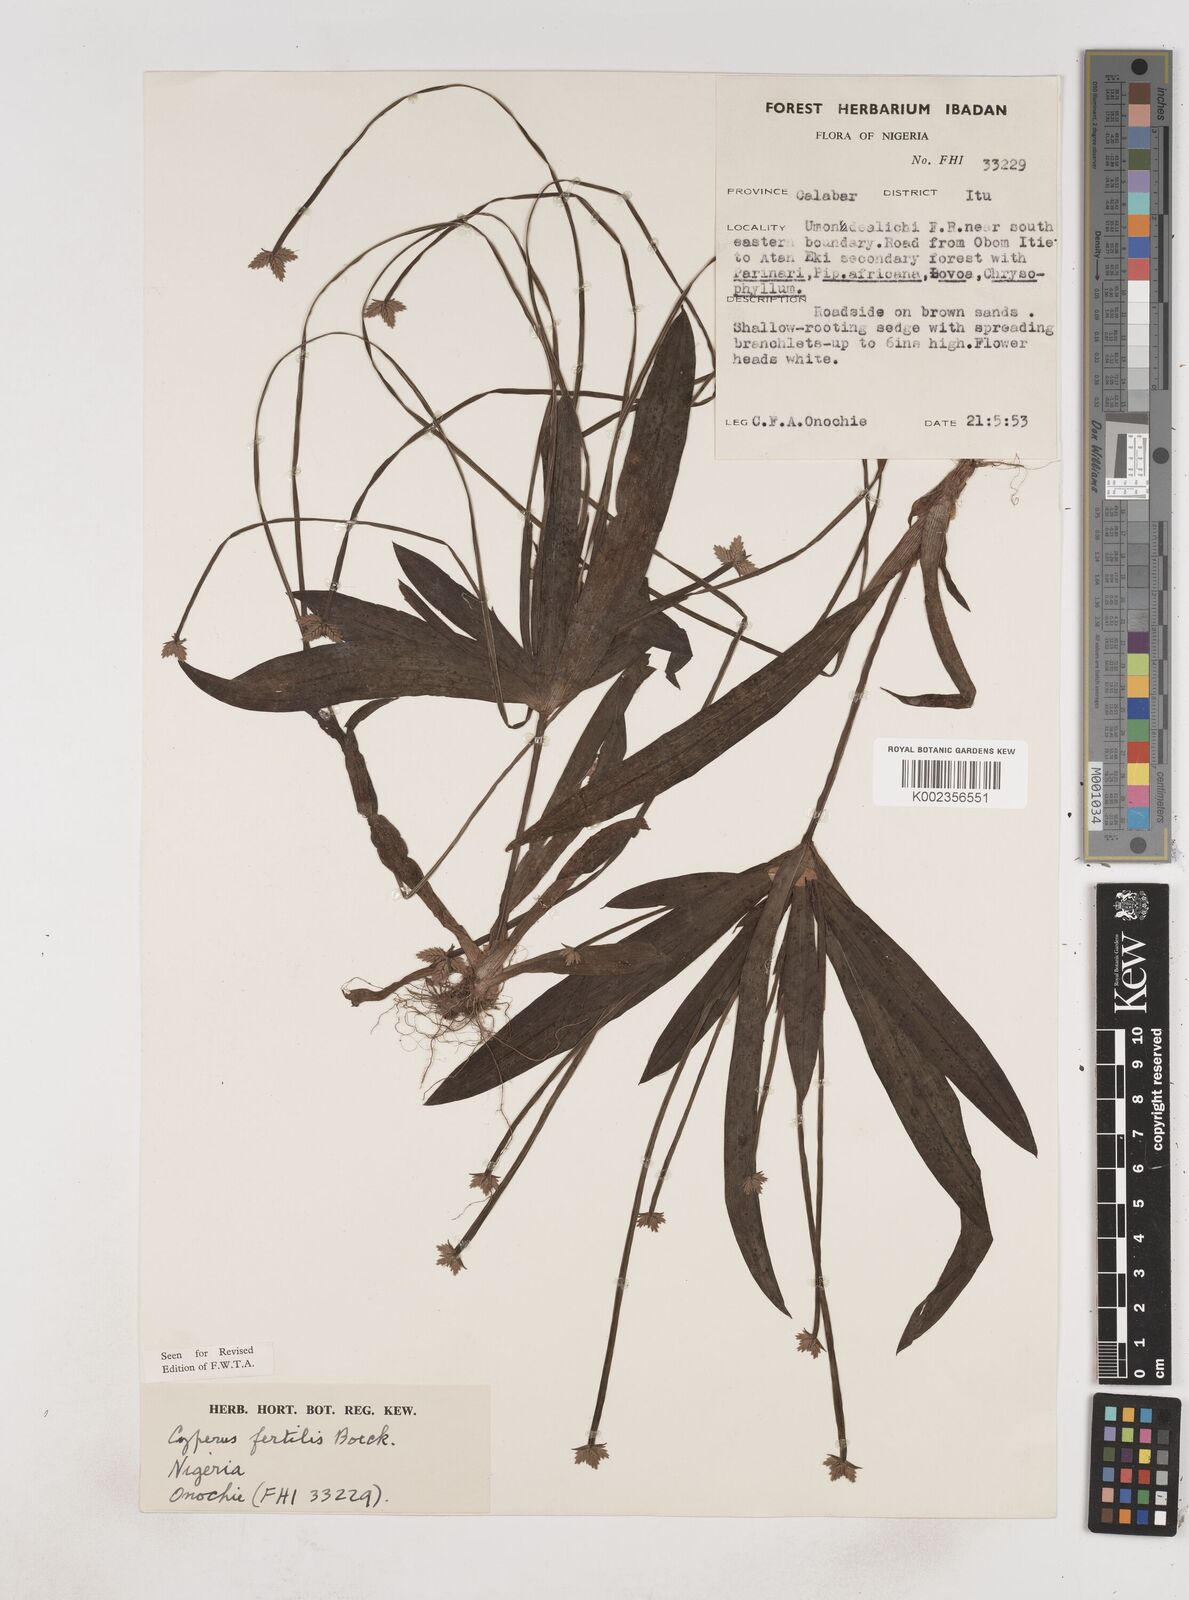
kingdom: Plantae
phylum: Tracheophyta
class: Liliopsida
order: Poales
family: Cyperaceae
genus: Cyperus
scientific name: Cyperus fertilis
